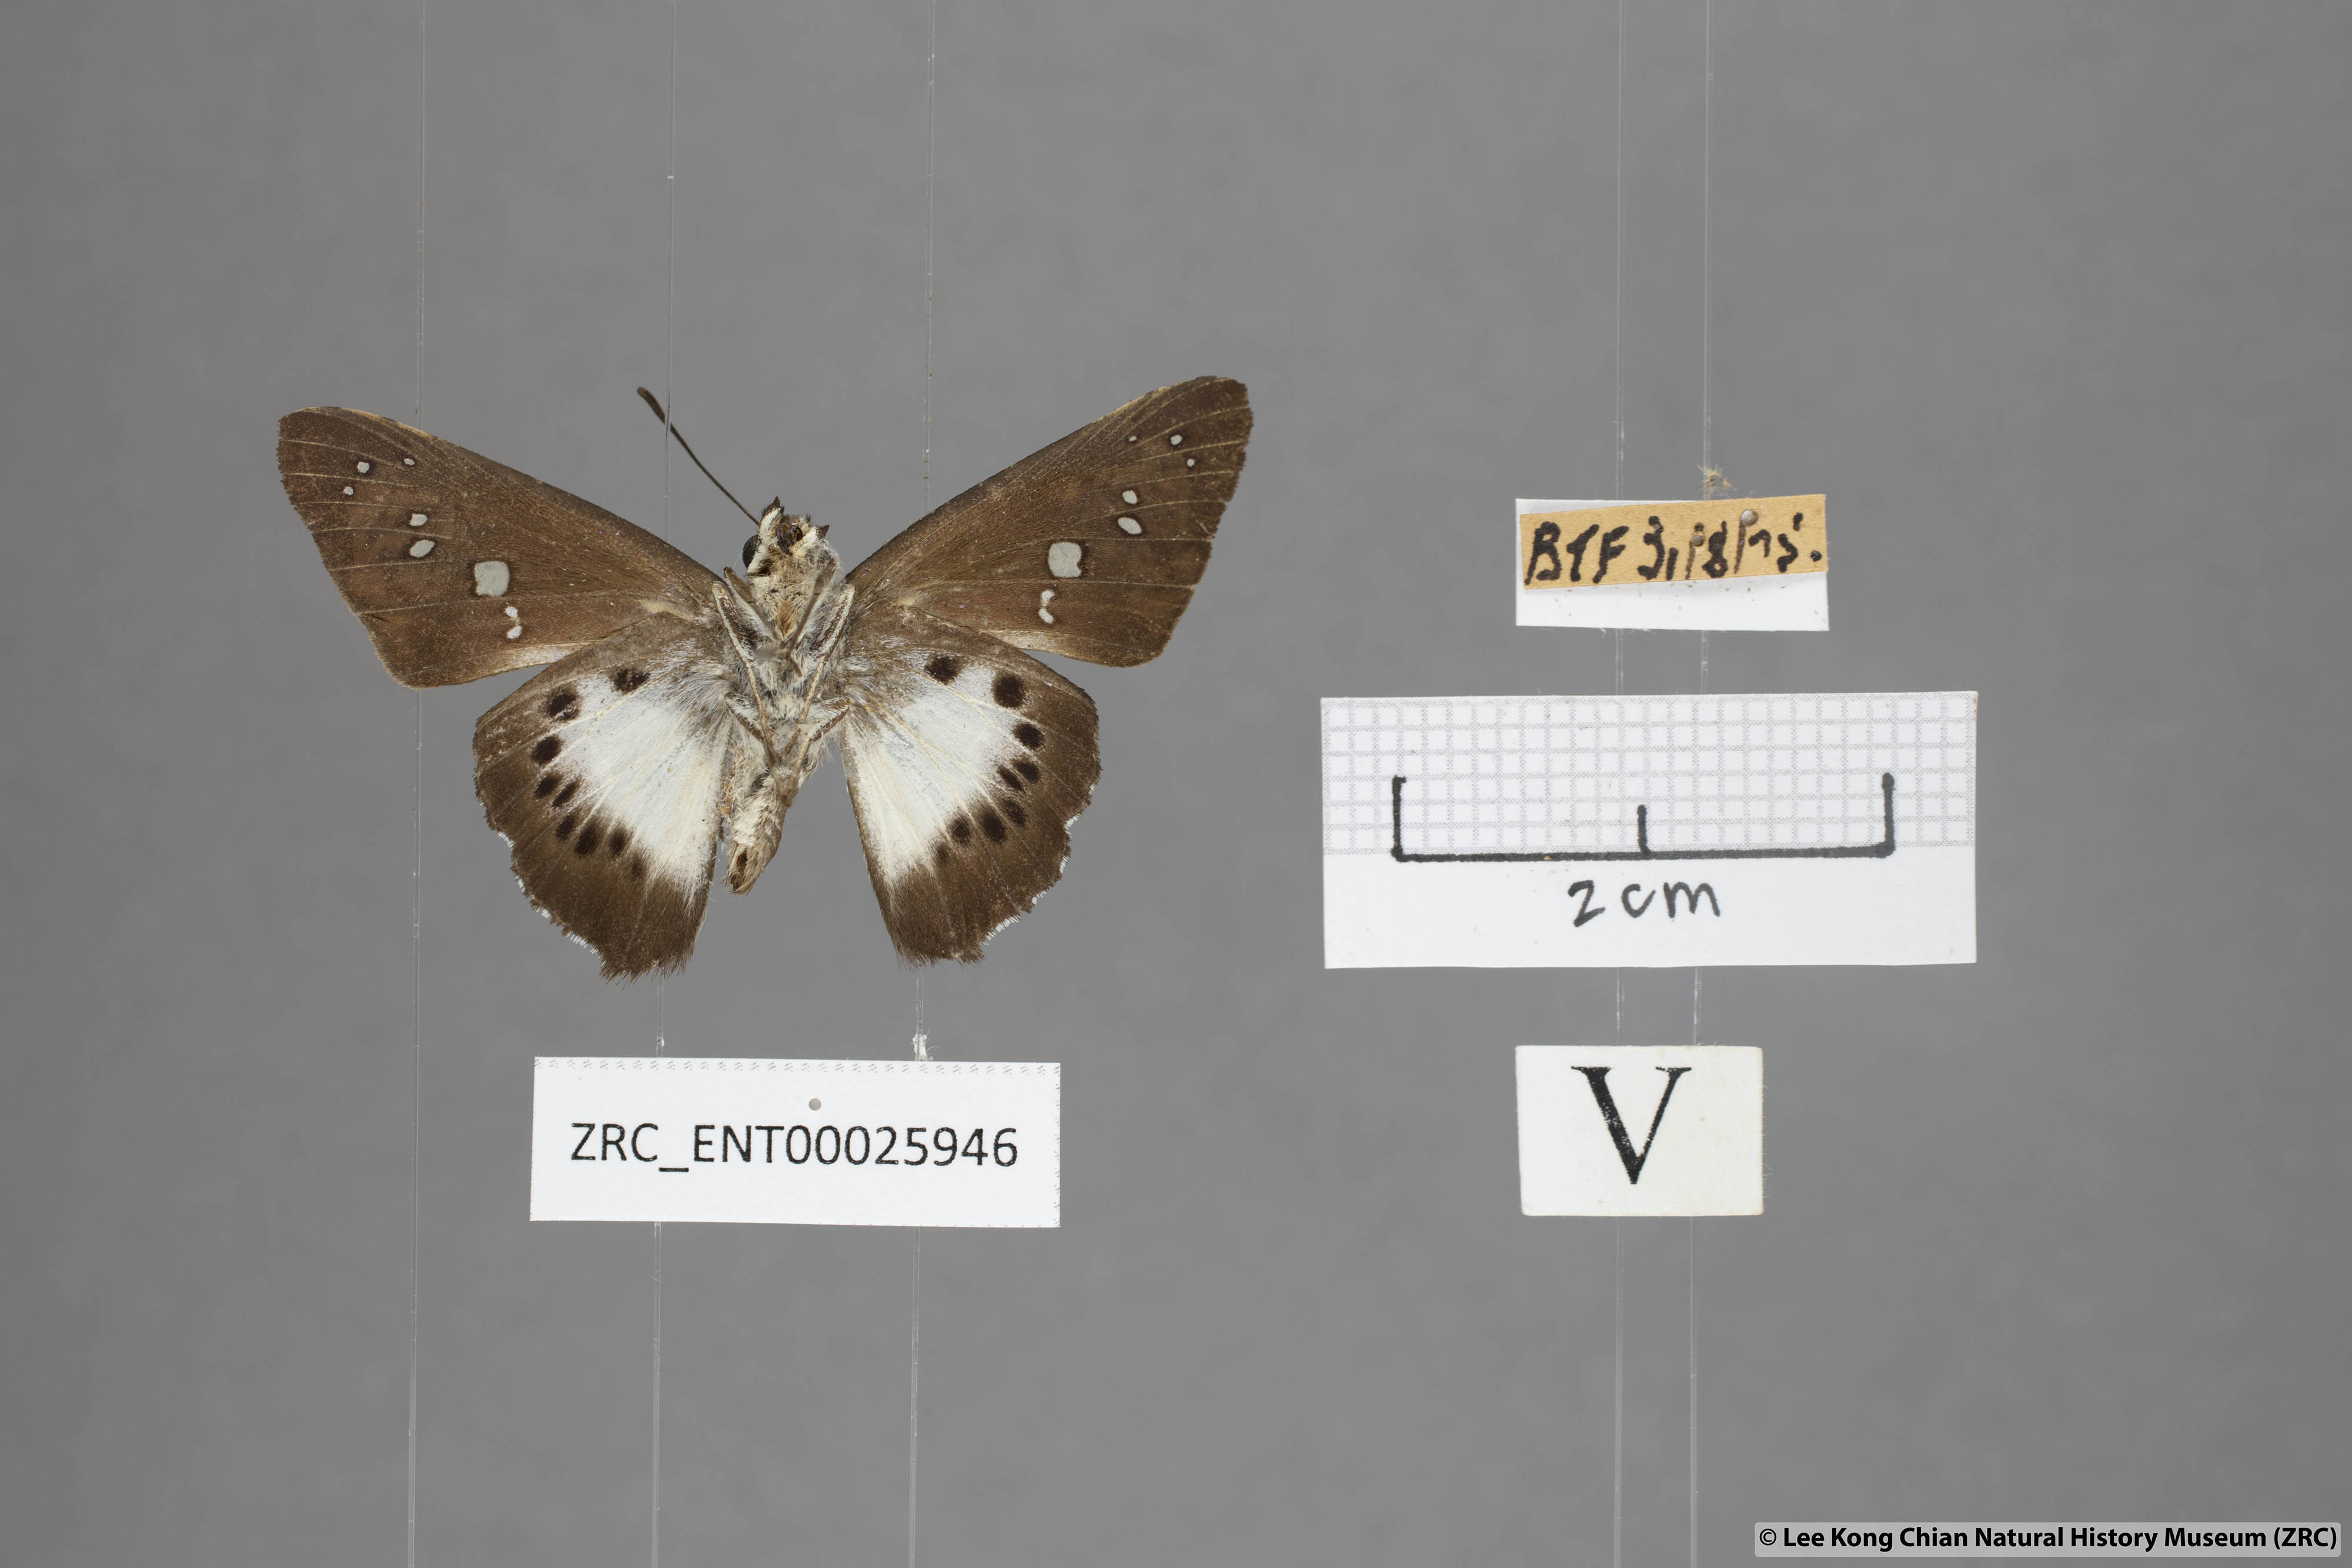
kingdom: Animalia
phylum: Arthropoda
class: Insecta
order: Lepidoptera
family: Hesperiidae
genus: Seseria
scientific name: Seseria affinis
